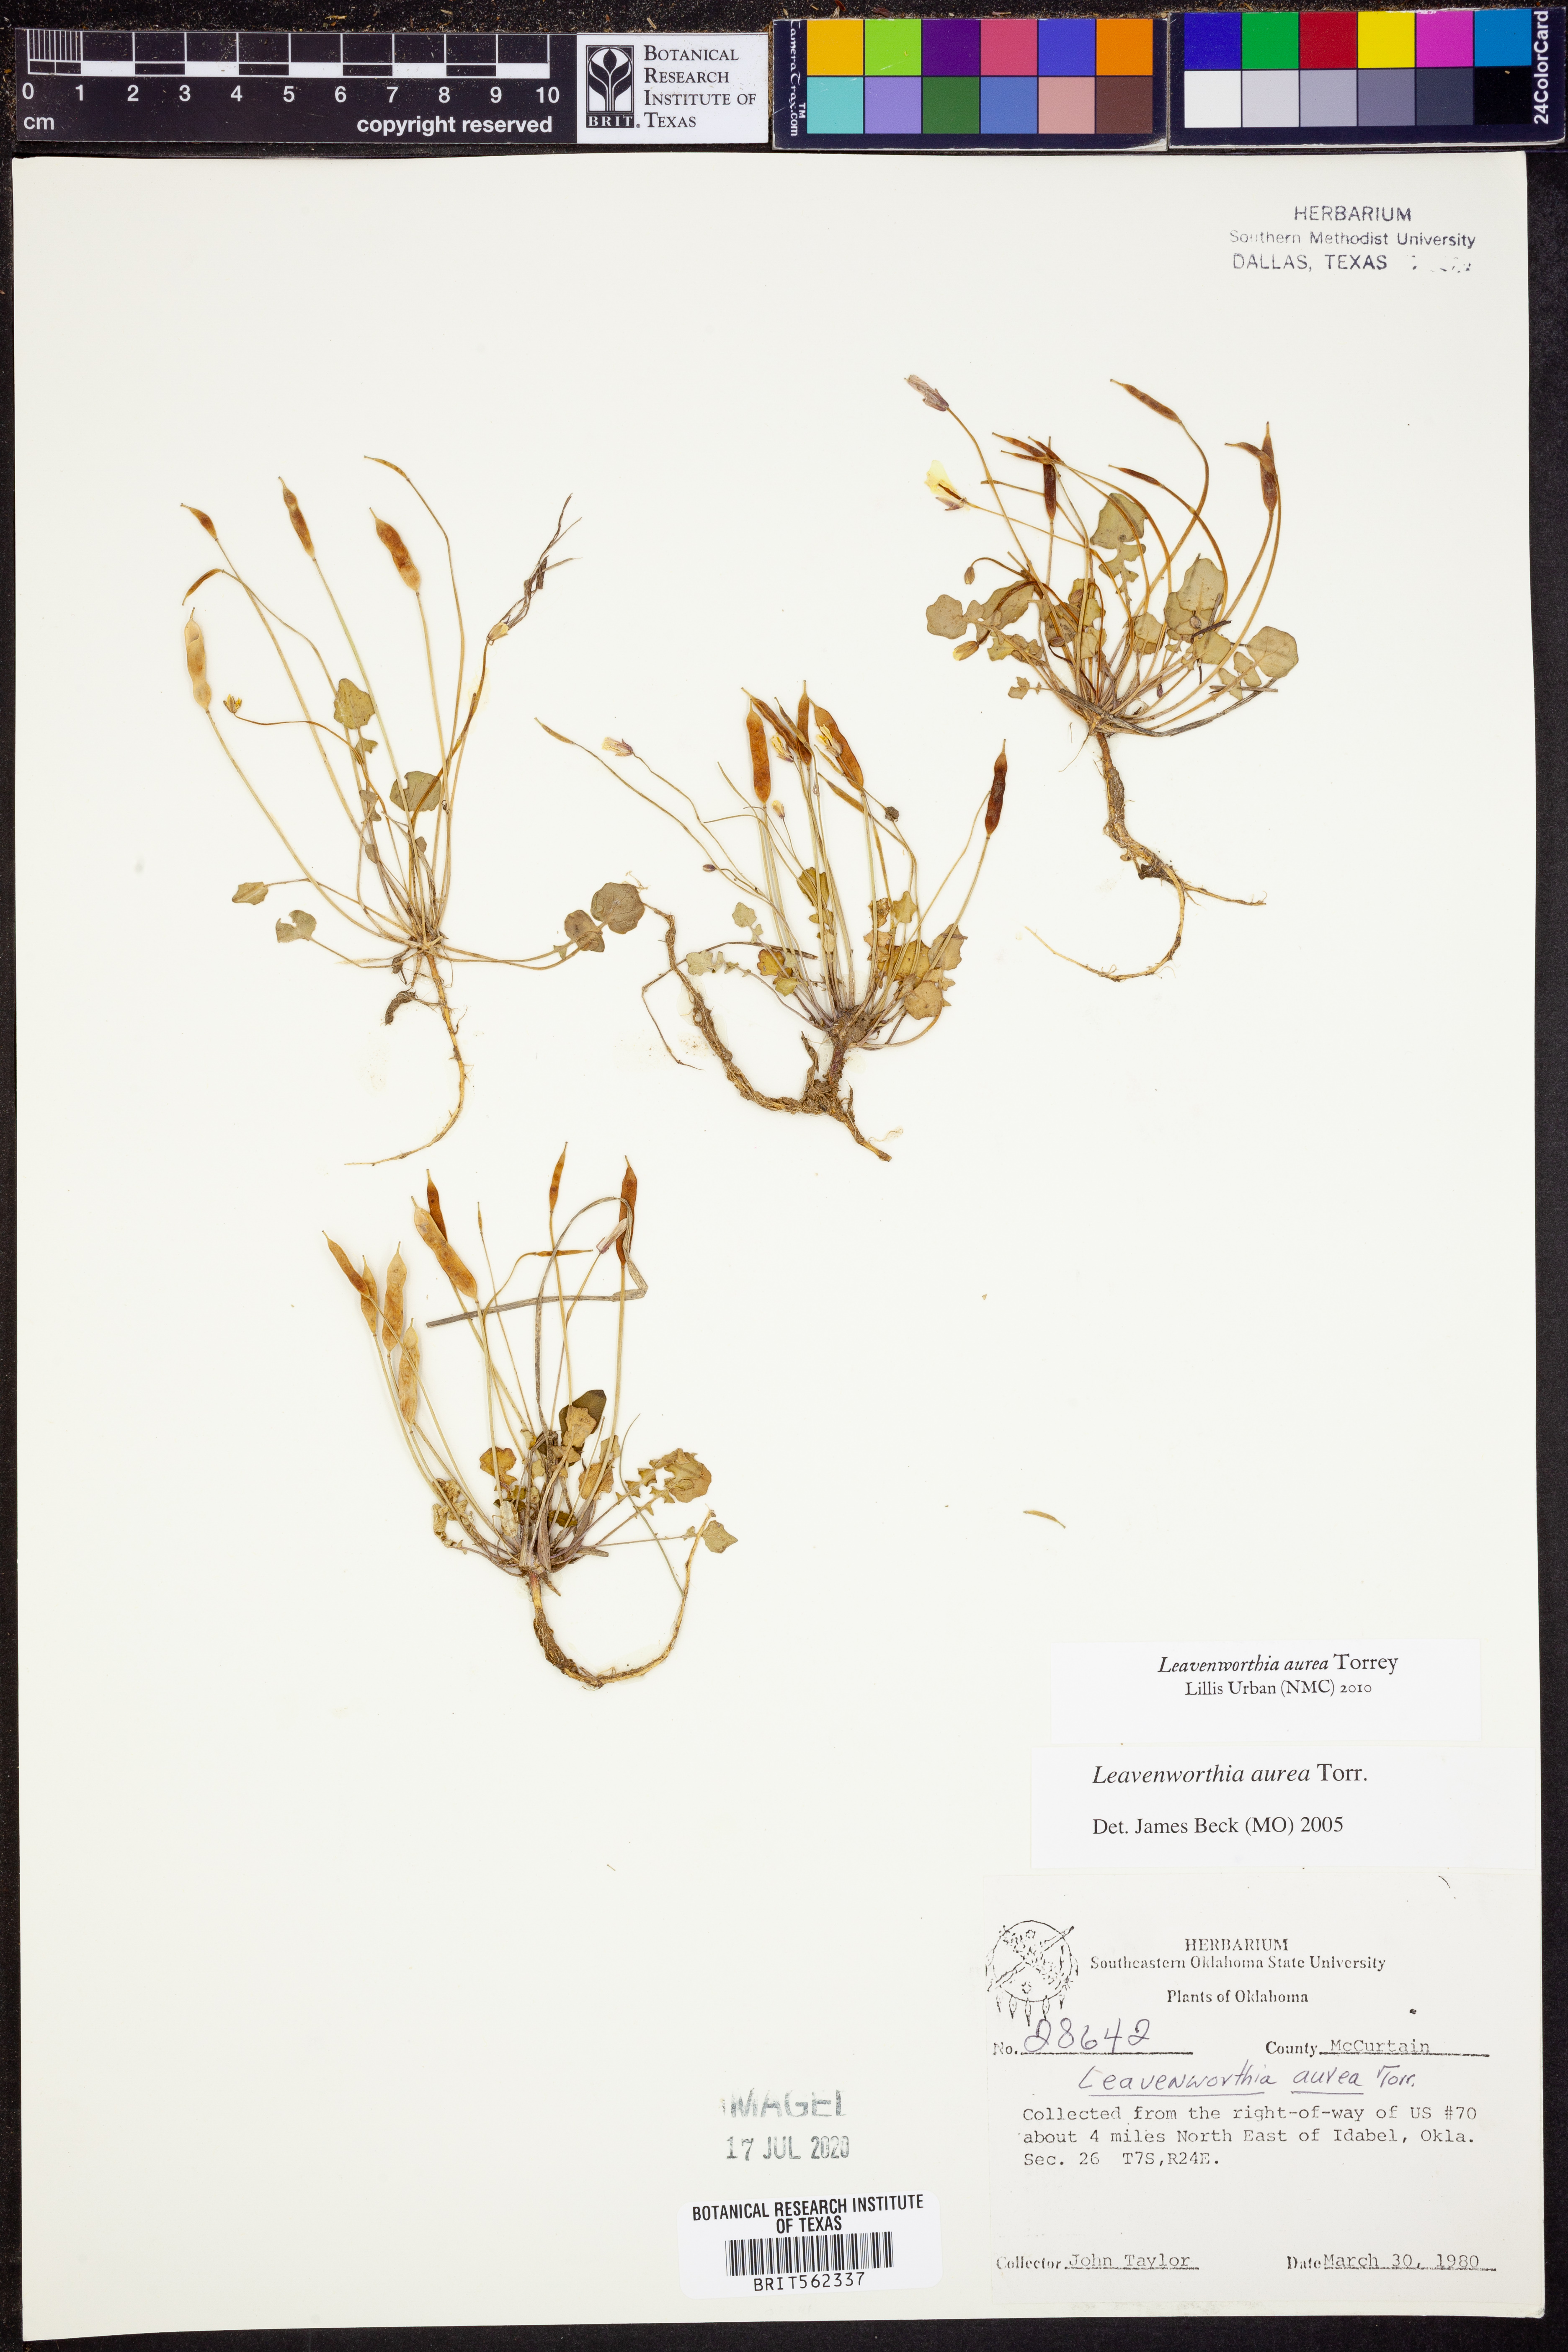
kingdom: Plantae
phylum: Tracheophyta
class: Magnoliopsida
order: Brassicales
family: Brassicaceae
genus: Leavenworthia
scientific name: Leavenworthia aurea
